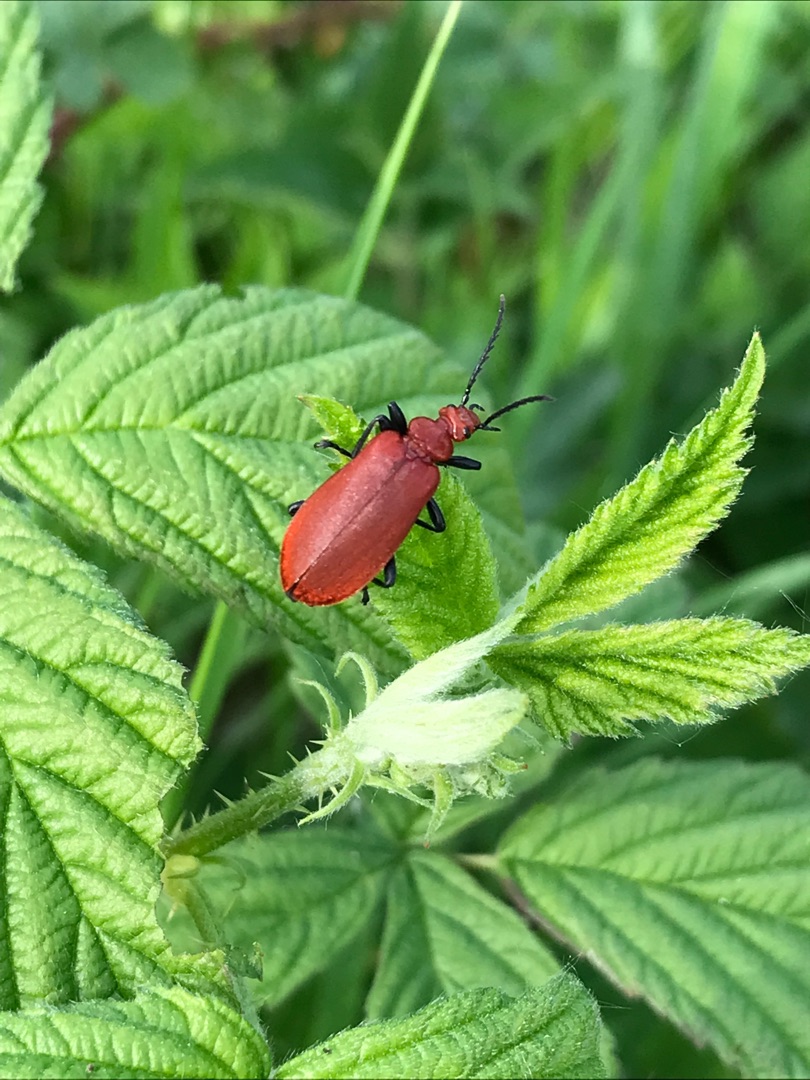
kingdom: Animalia
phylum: Arthropoda
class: Insecta
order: Coleoptera
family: Pyrochroidae
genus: Pyrochroa
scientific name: Pyrochroa serraticornis
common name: Rødhovedet kardinalbille
